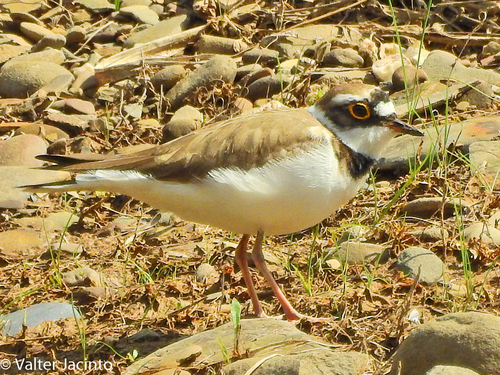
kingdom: Animalia
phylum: Chordata
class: Aves
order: Charadriiformes
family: Charadriidae
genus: Charadrius
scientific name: Charadrius dubius
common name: Little ringed plover
